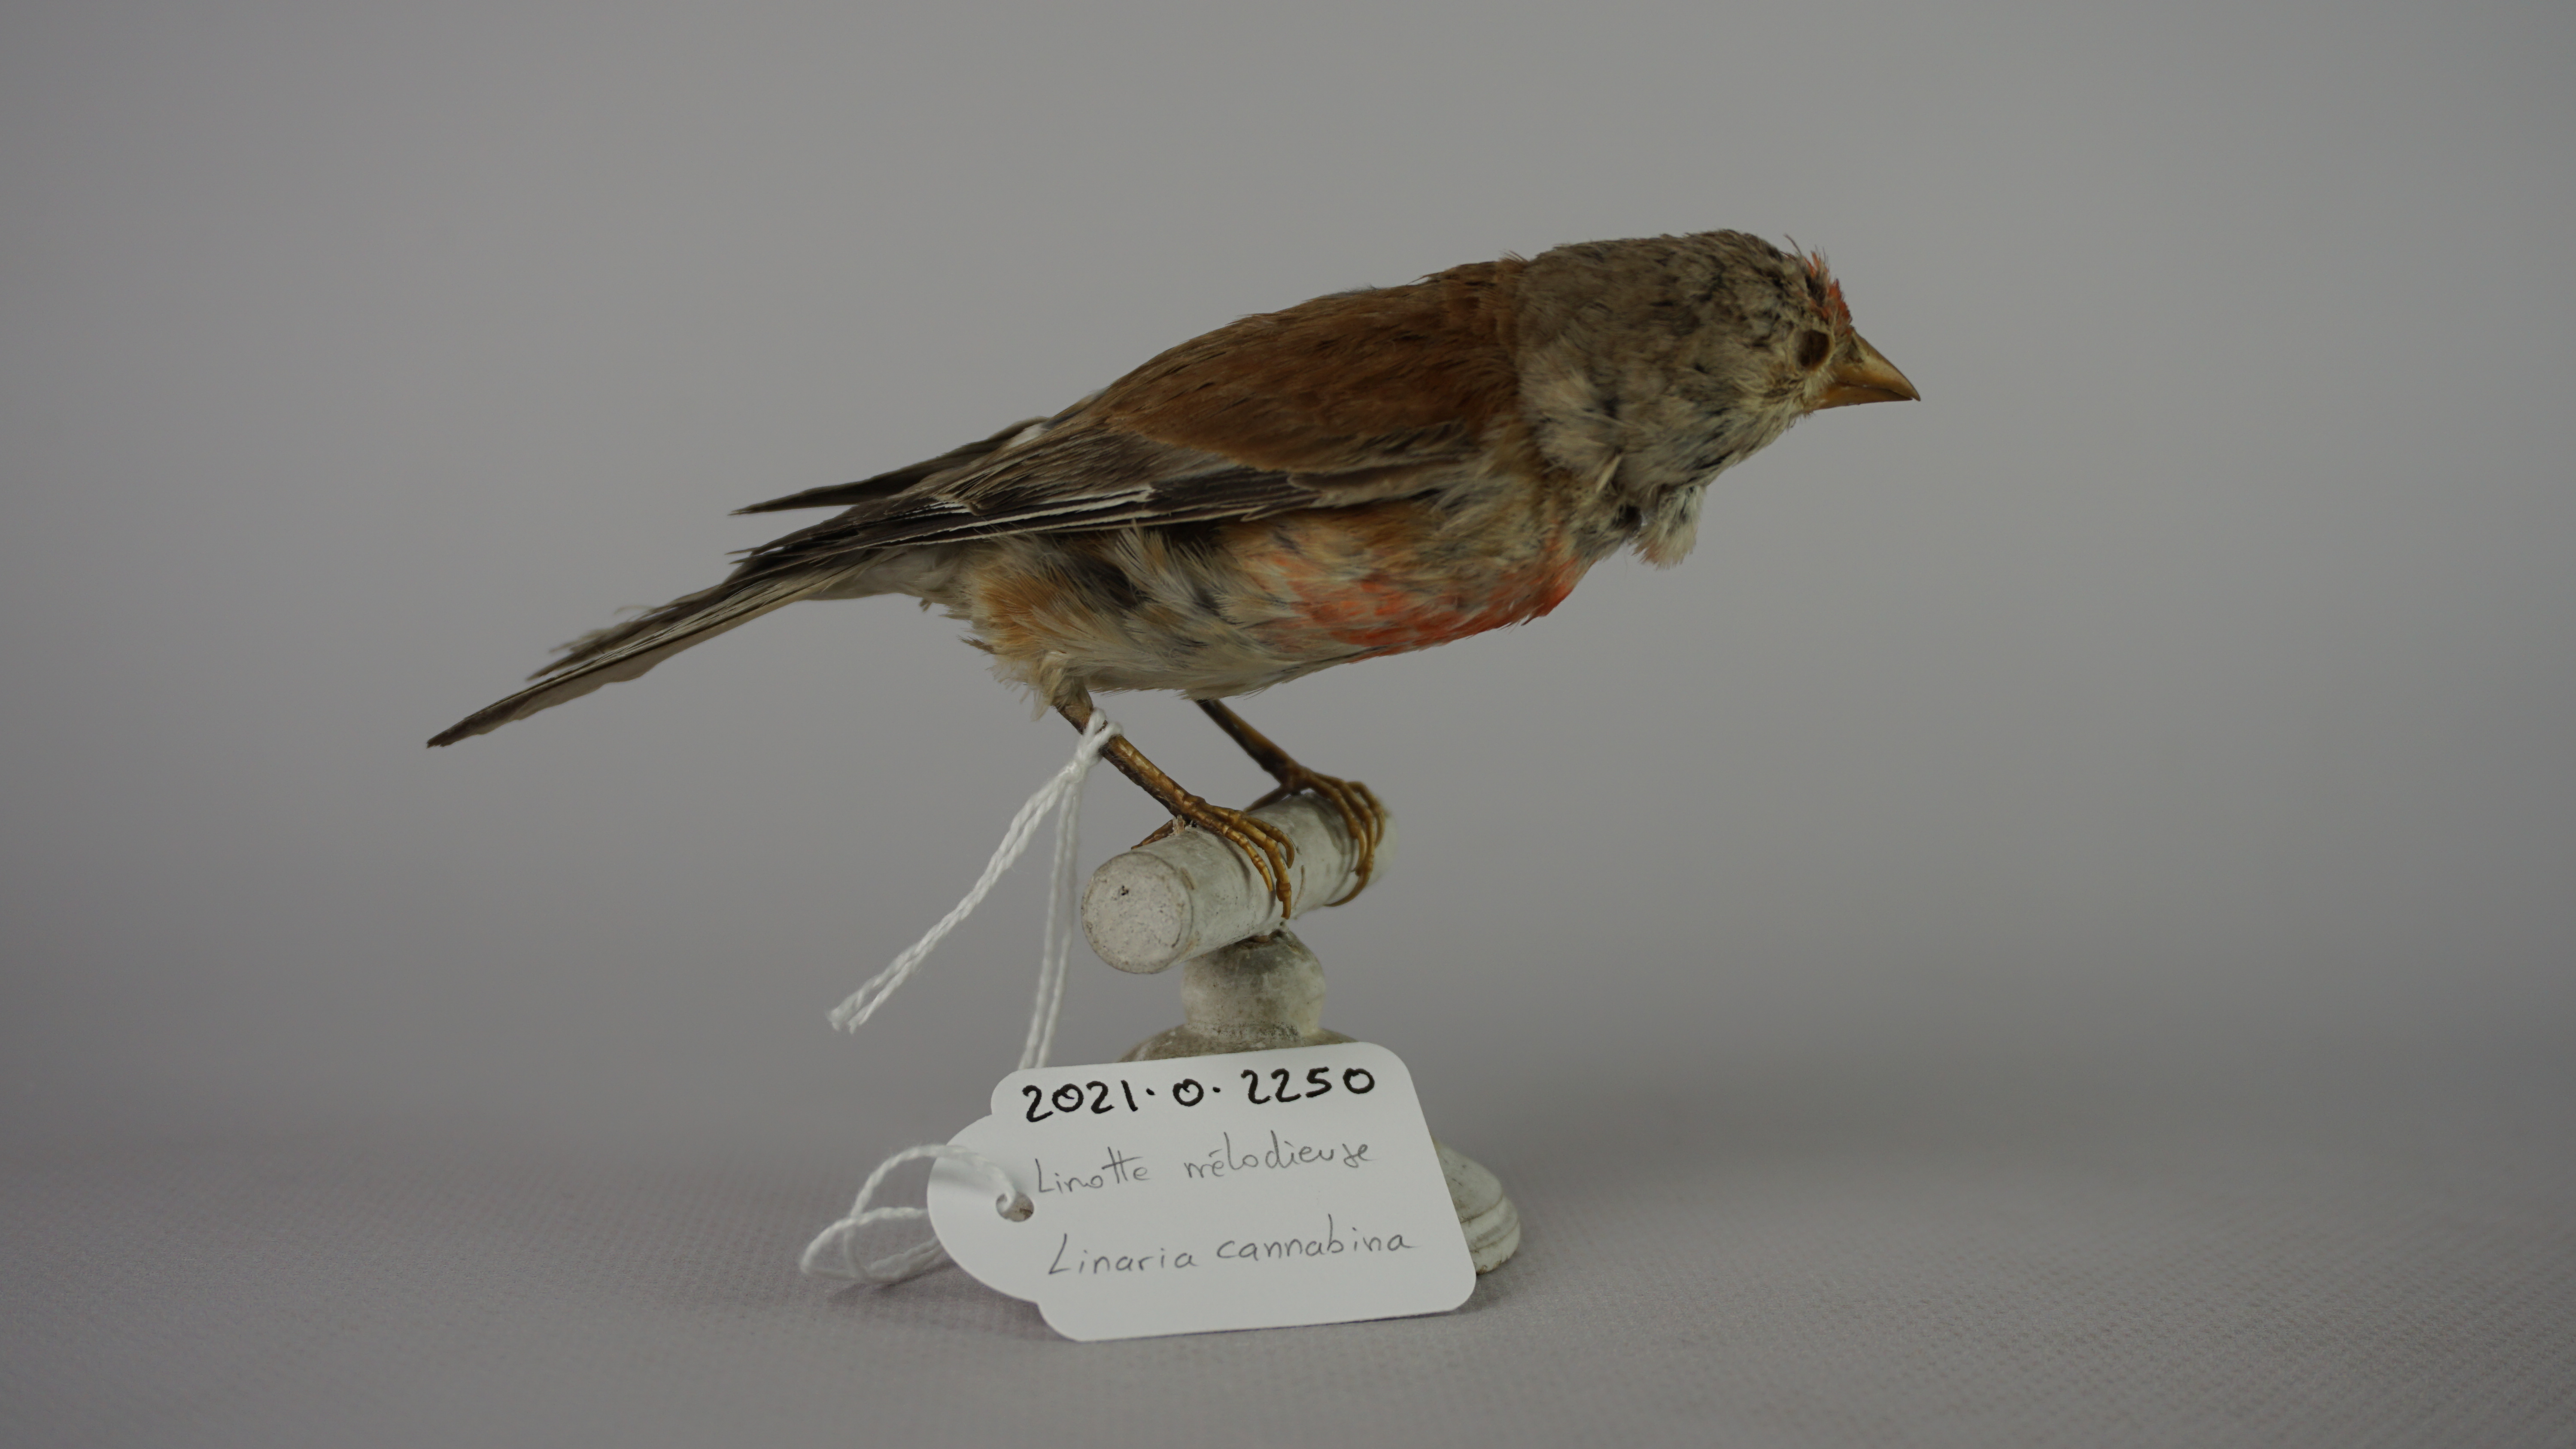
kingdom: Animalia
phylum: Chordata
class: Aves
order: Passeriformes
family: Fringillidae
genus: Linaria
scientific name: Linaria cannabina
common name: Common linnet
